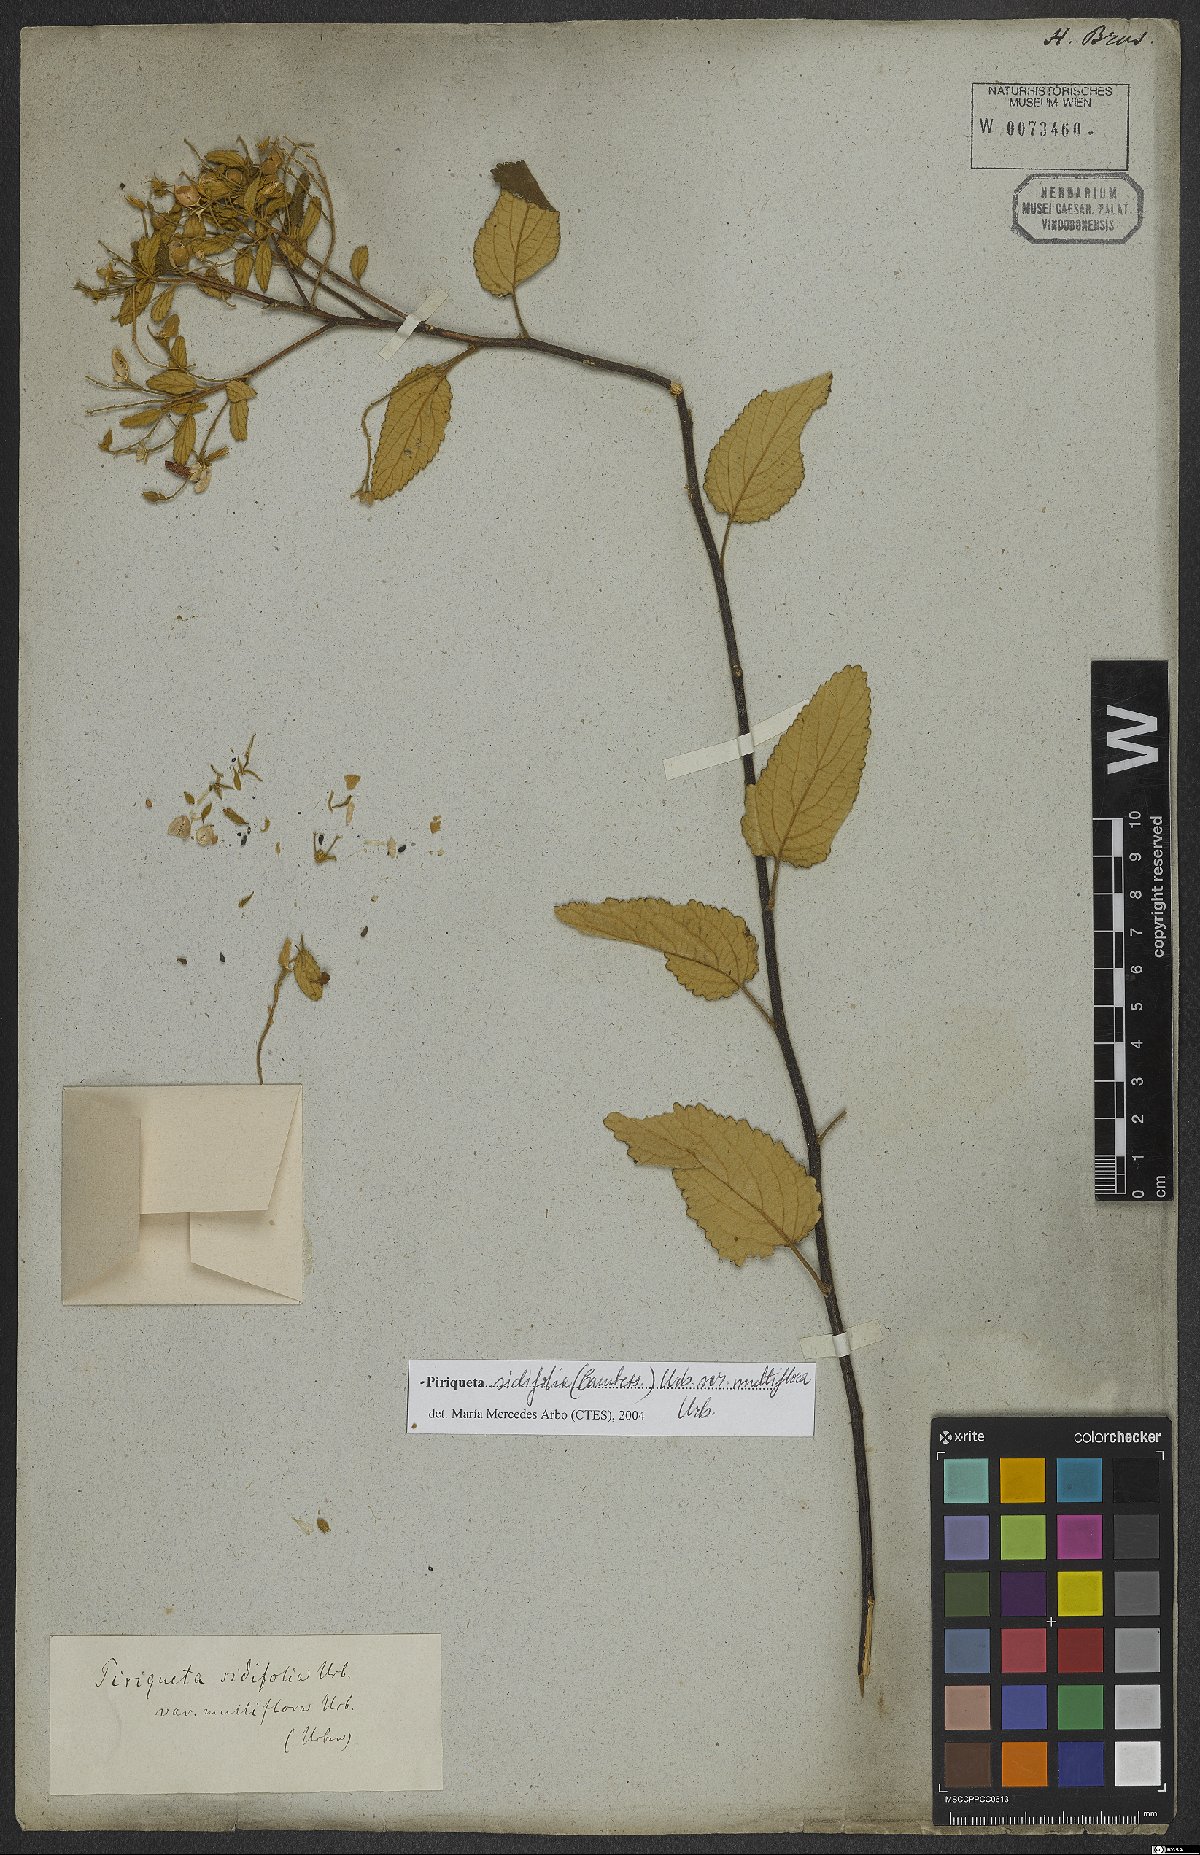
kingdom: Plantae
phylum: Tracheophyta
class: Magnoliopsida
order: Malpighiales
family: Turneraceae
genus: Piriqueta
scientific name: Piriqueta sidifolia
